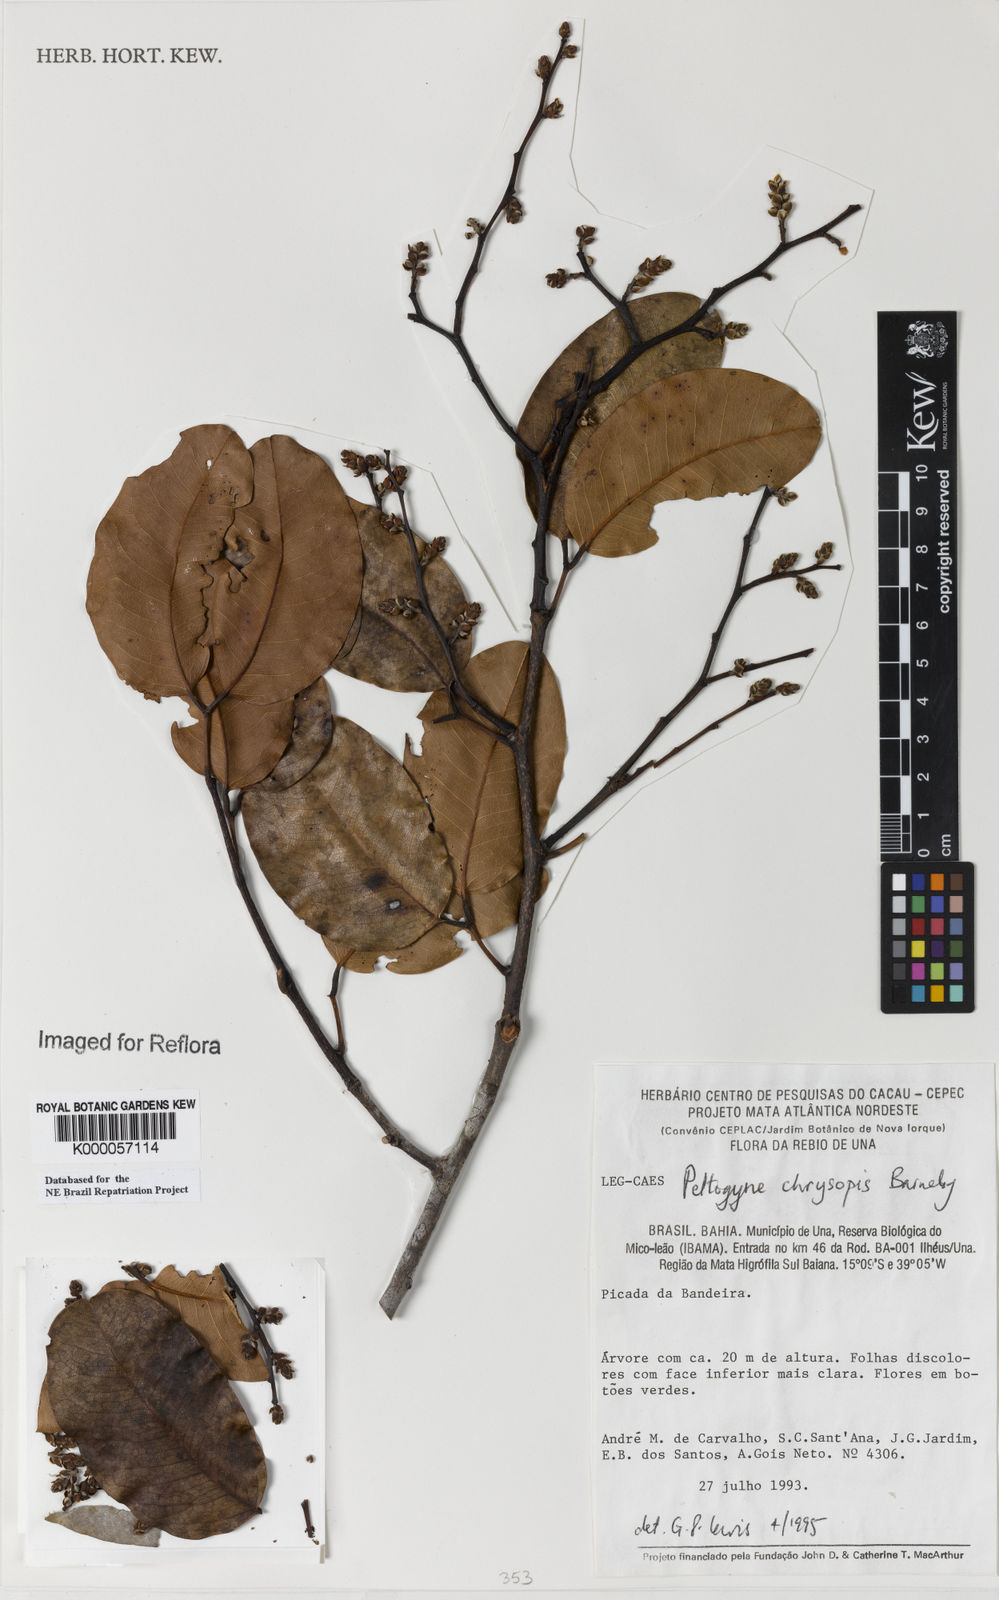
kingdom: Plantae
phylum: Tracheophyta
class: Magnoliopsida
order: Fabales
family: Fabaceae
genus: Peltogyne
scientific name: Peltogyne chrysopis
